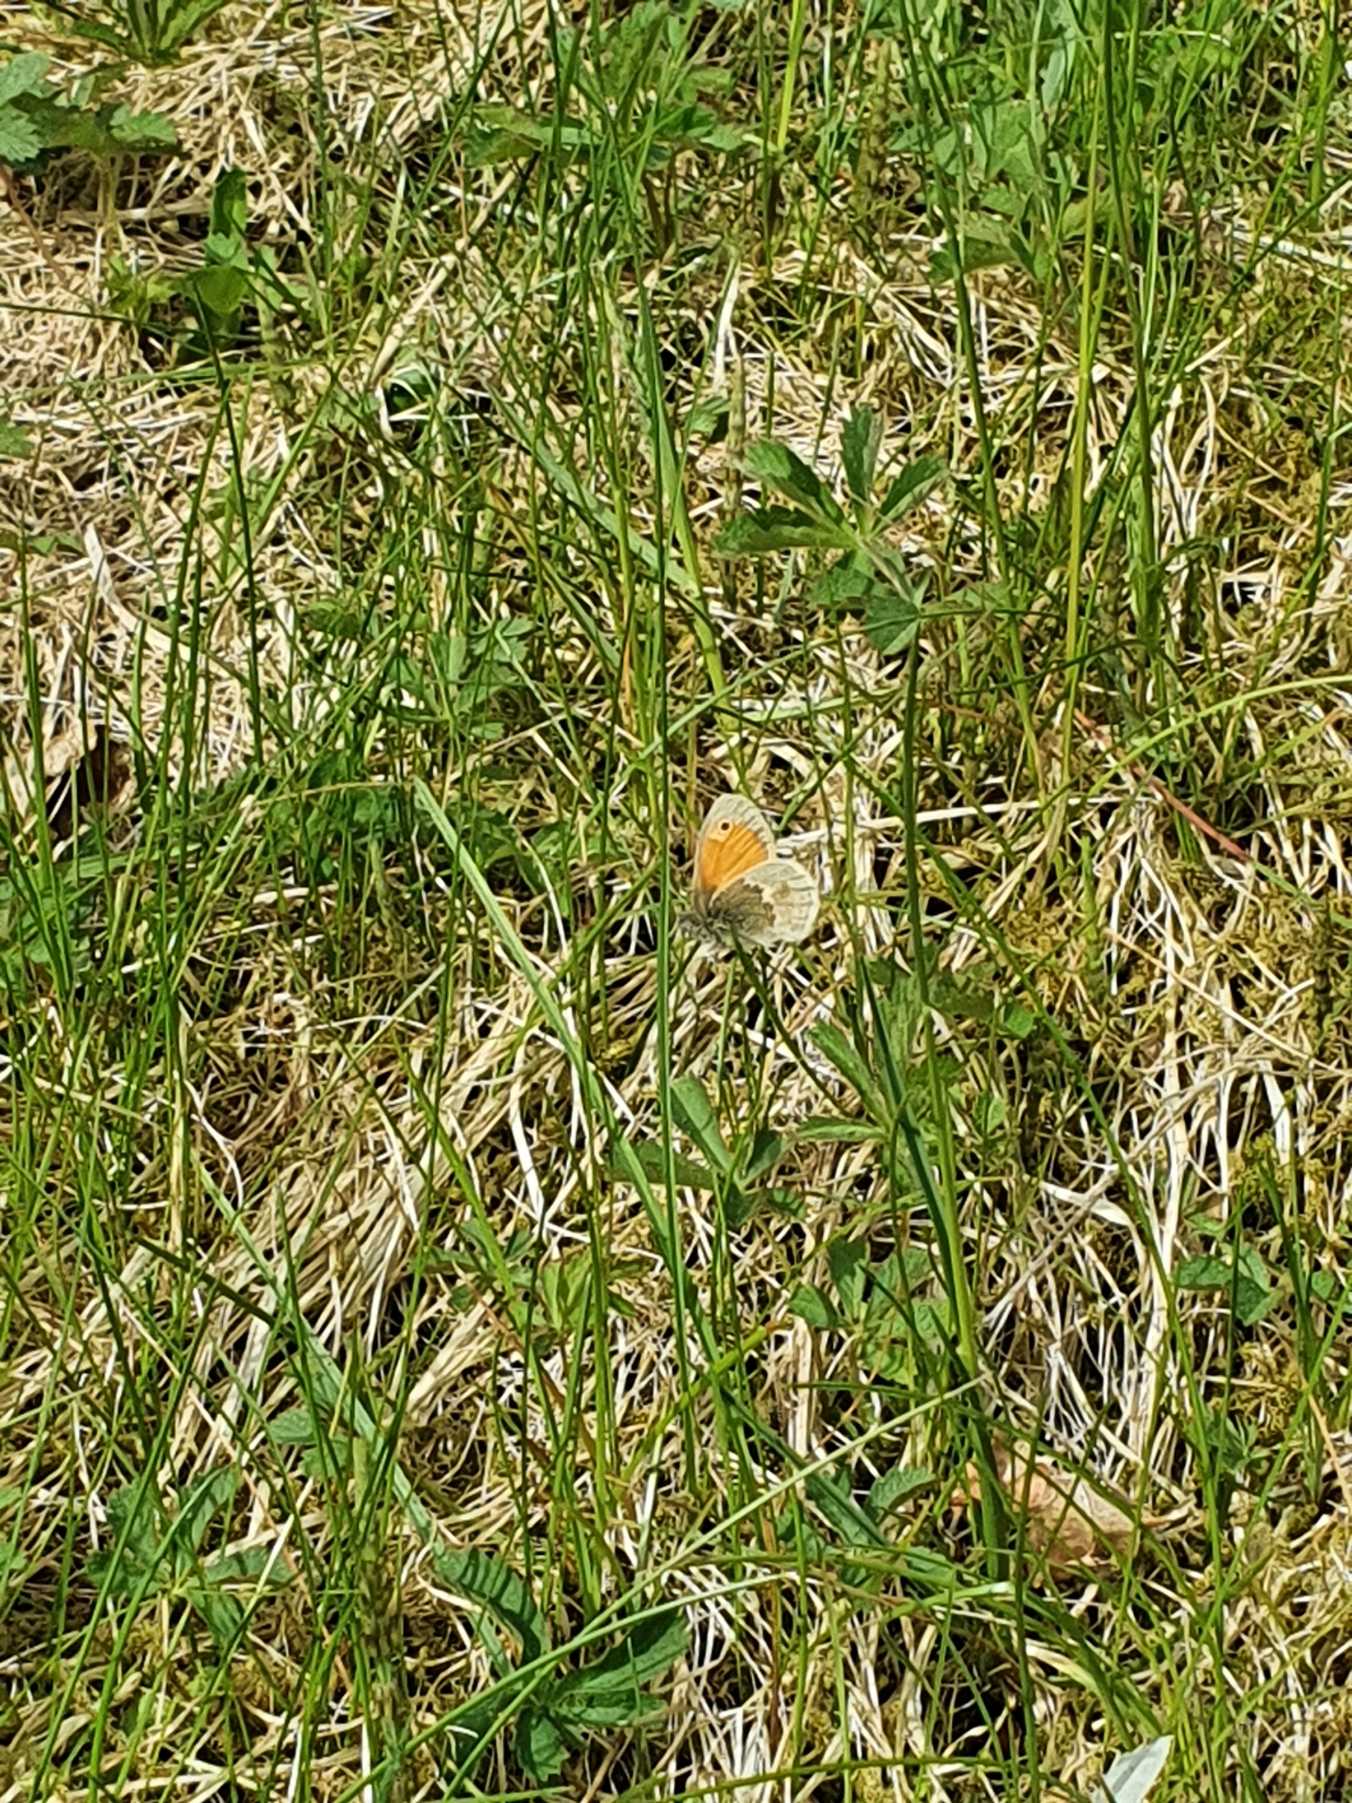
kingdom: Animalia
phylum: Arthropoda
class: Insecta
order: Lepidoptera
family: Nymphalidae
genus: Coenonympha
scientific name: Coenonympha pamphilus
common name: Okkergul randøje
